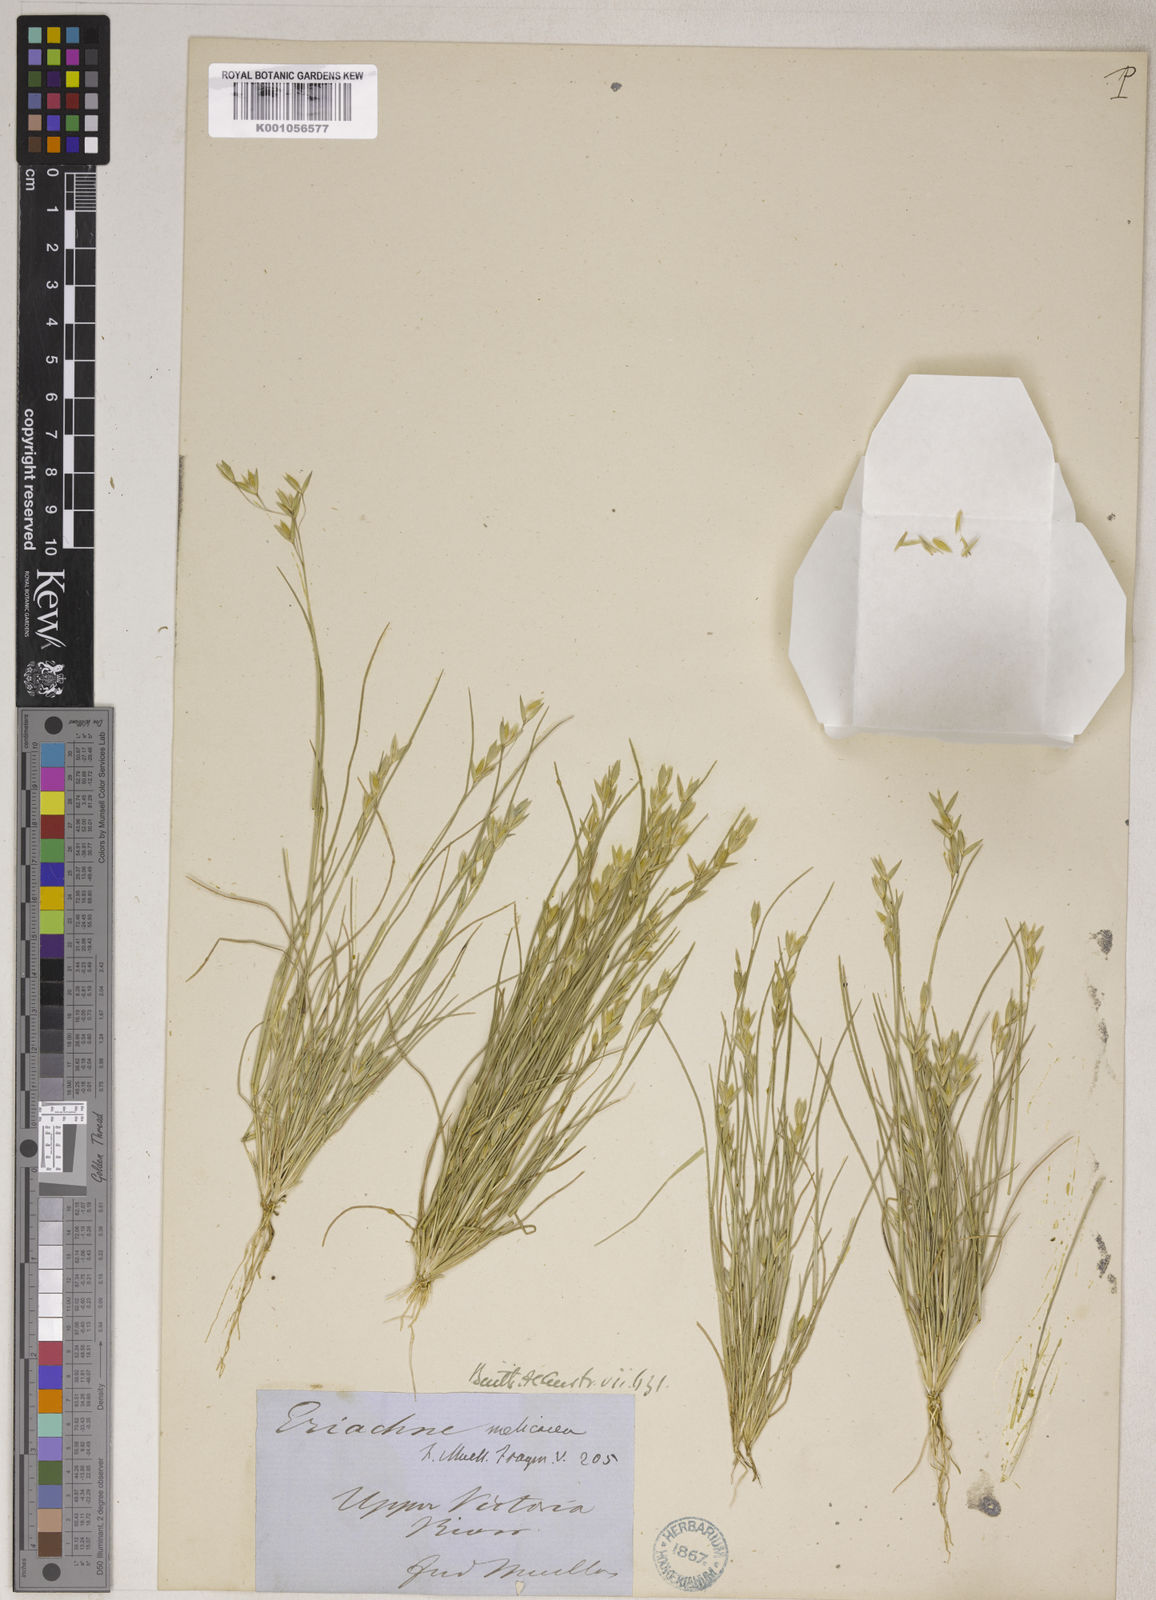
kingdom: Plantae
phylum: Tracheophyta
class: Liliopsida
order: Poales
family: Poaceae
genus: Eriachne
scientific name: Eriachne melicacea
